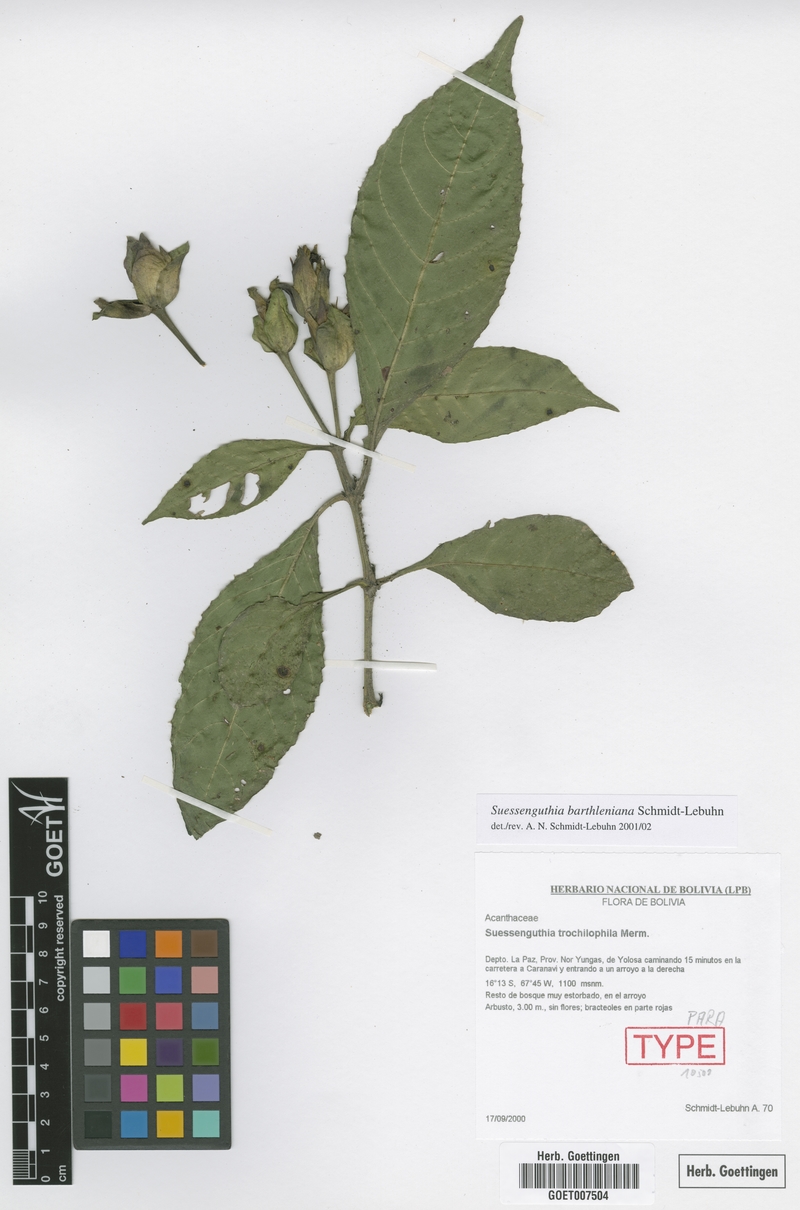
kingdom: Plantae
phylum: Tracheophyta
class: Magnoliopsida
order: Lamiales
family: Acanthaceae
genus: Suessenguthia
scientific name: Suessenguthia barthleniana
